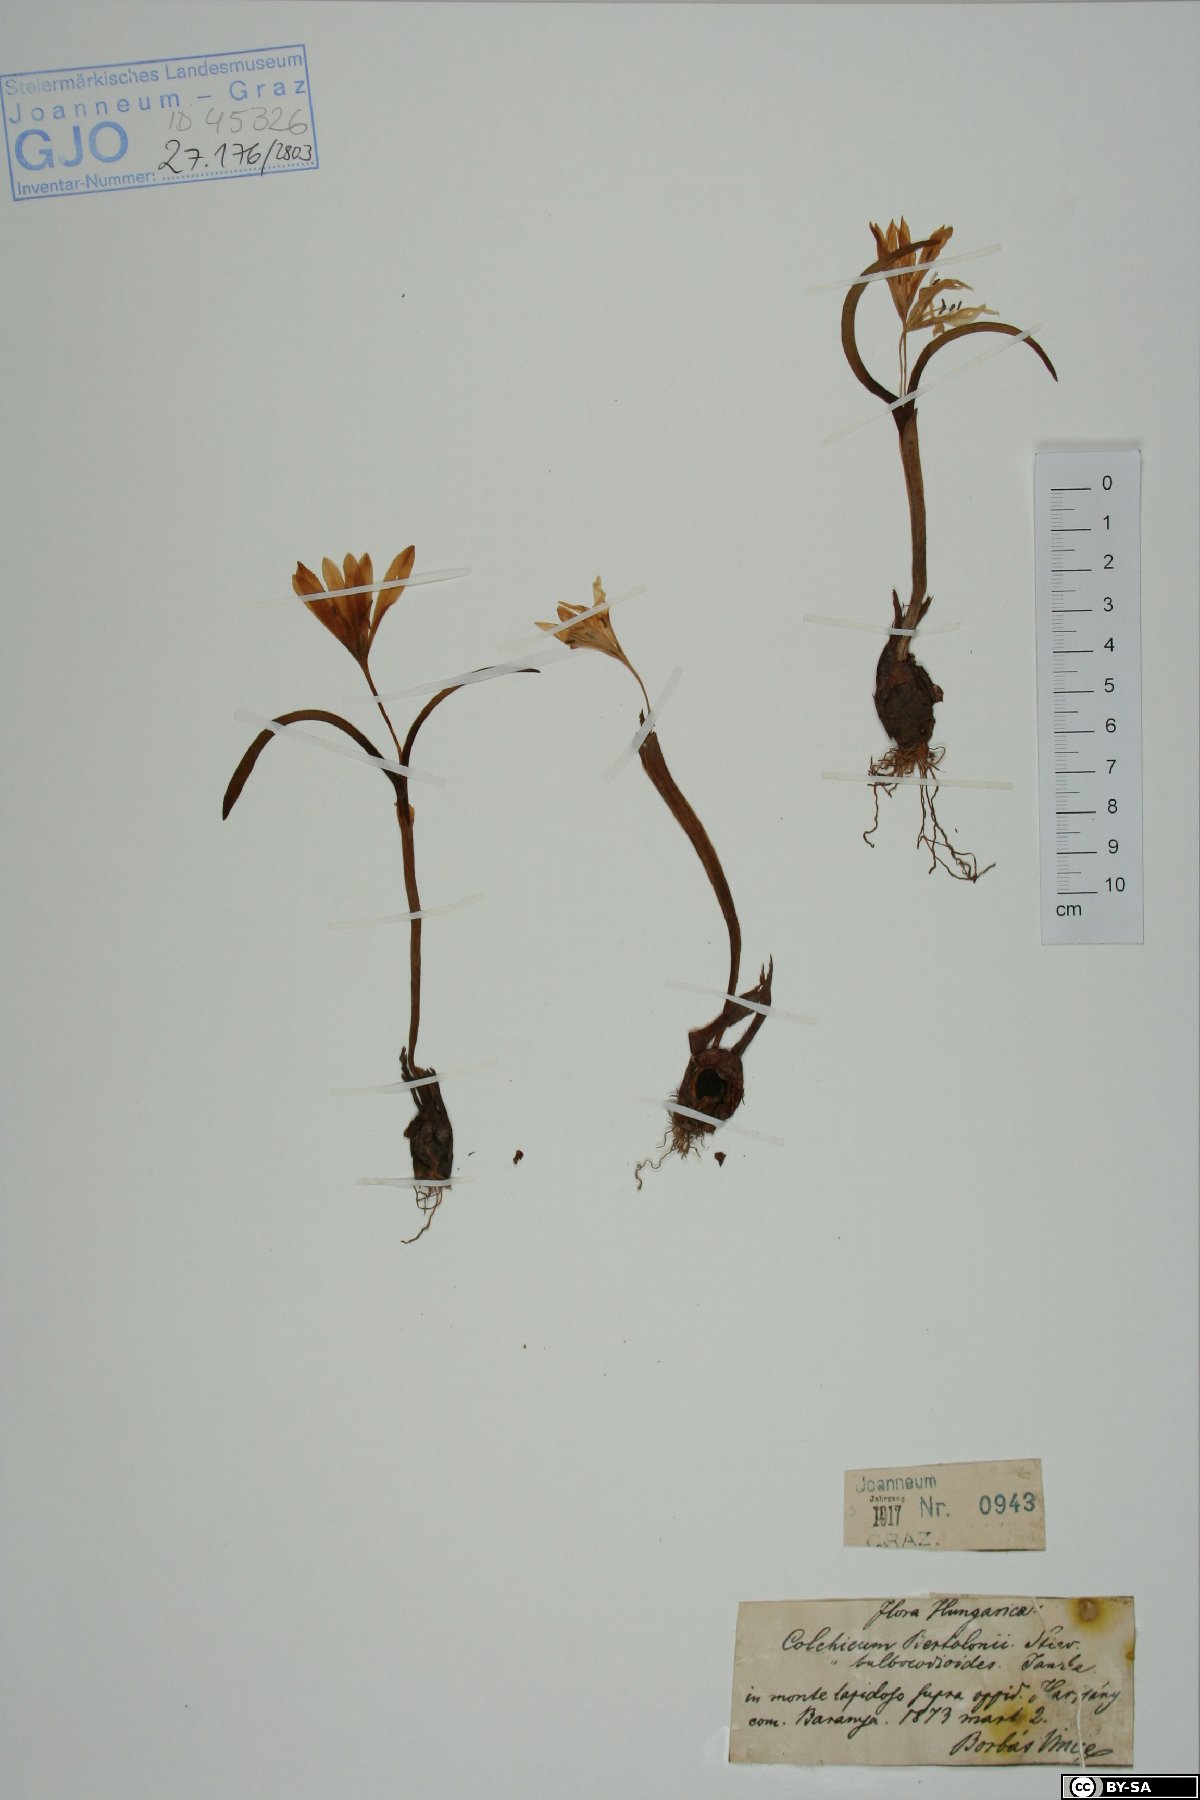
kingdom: Plantae
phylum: Tracheophyta
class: Liliopsida
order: Liliales
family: Colchicaceae
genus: Colchicum
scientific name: Colchicum cupanii
